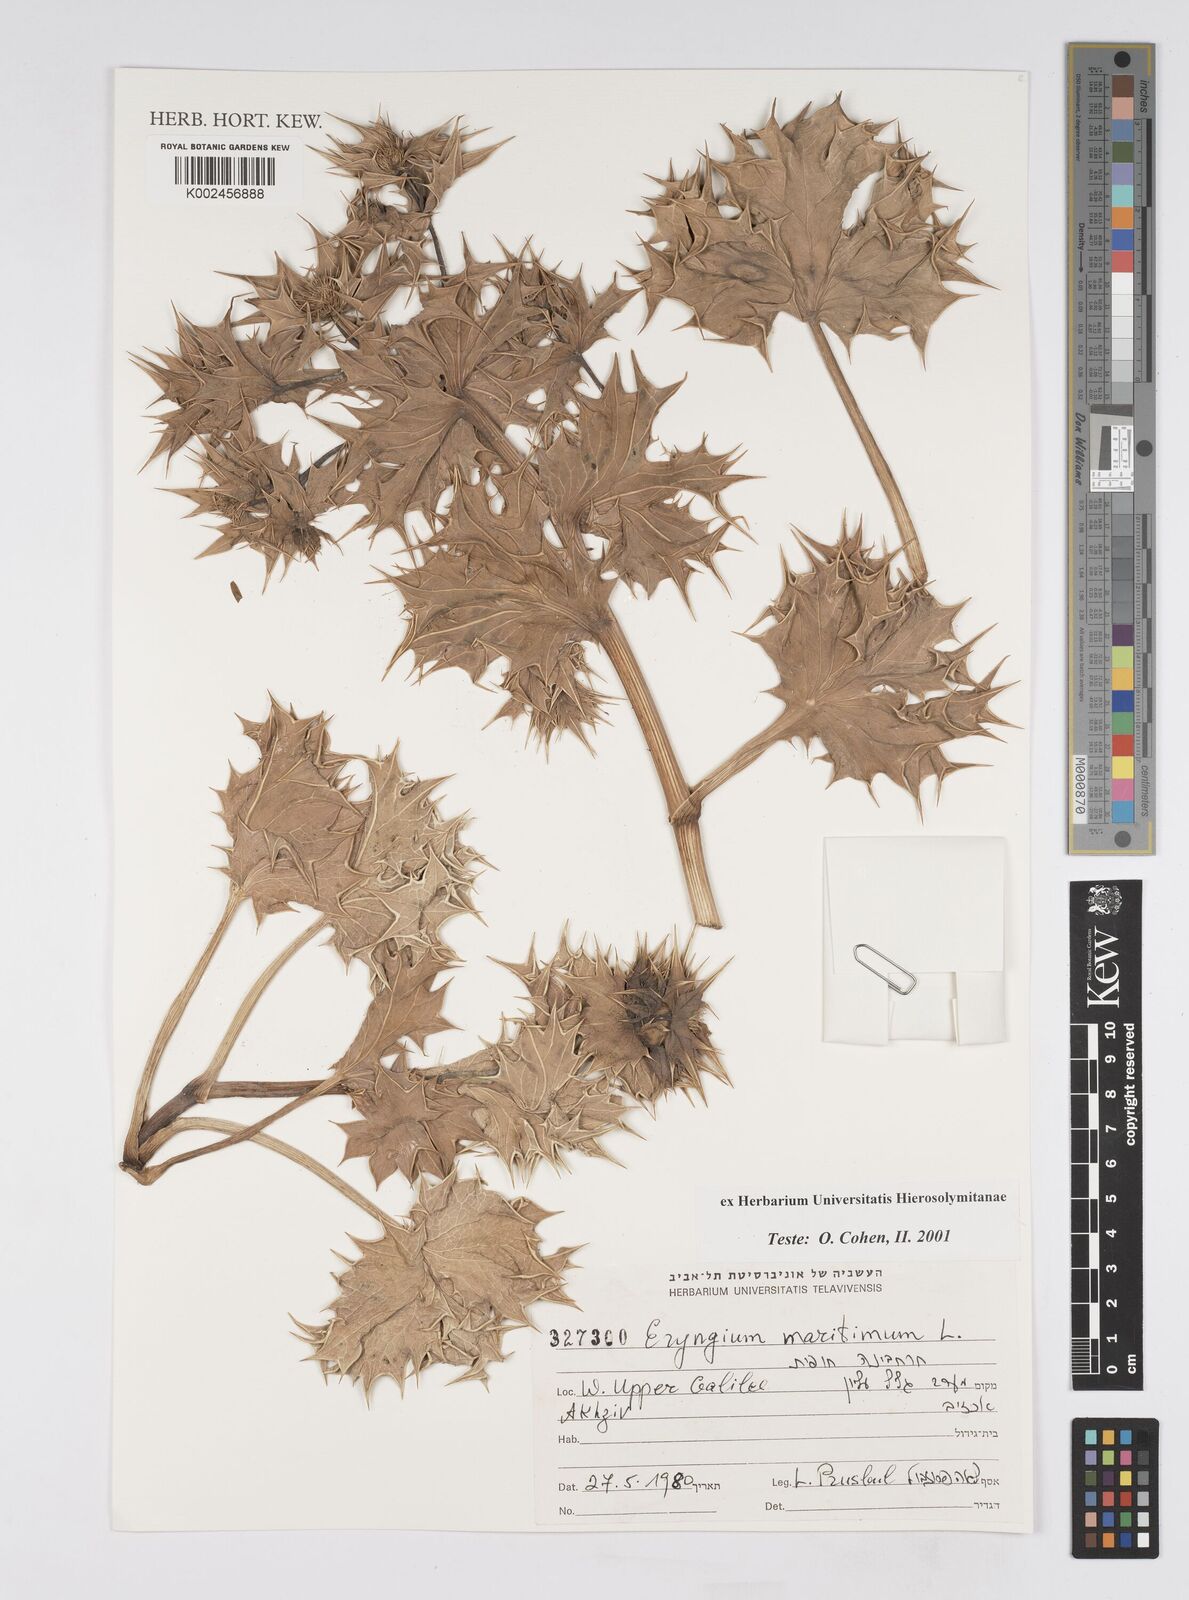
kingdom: Plantae
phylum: Tracheophyta
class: Magnoliopsida
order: Apiales
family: Apiaceae
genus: Eryngium
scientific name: Eryngium maritimum
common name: Sea-holly
